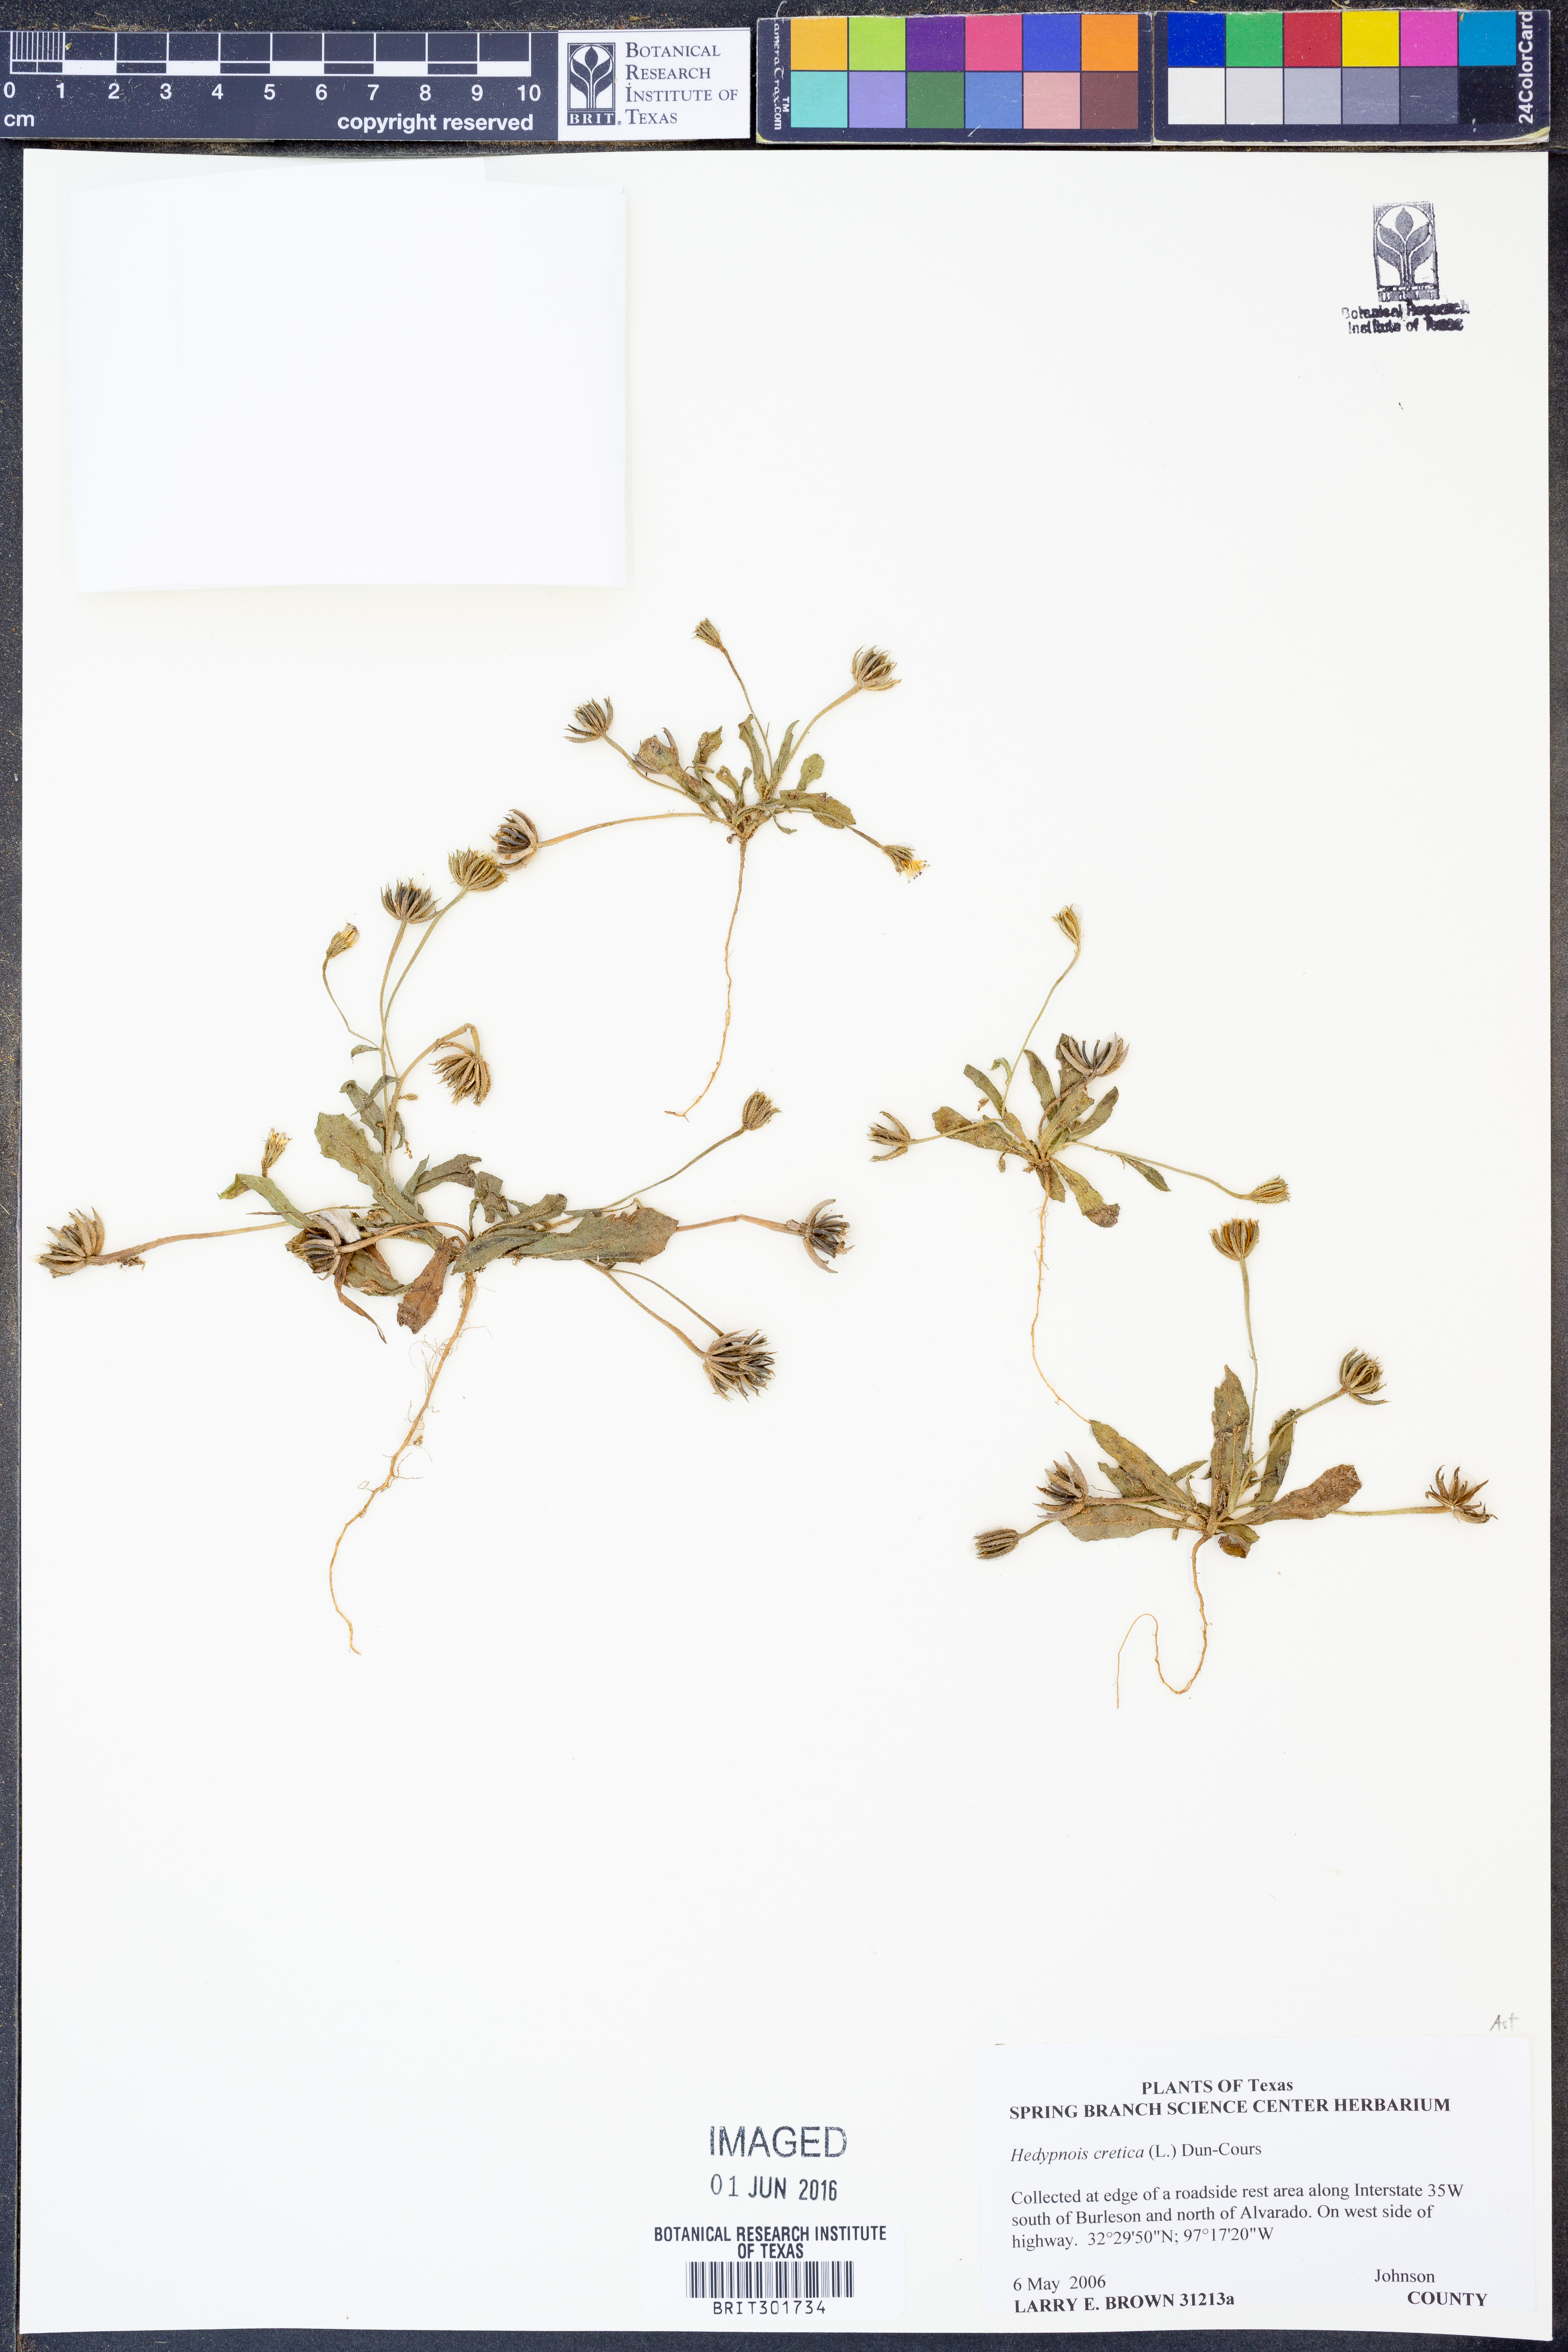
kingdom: Plantae
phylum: Tracheophyta
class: Magnoliopsida
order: Asterales
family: Asteraceae
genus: Hedypnois
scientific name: Hedypnois cretica
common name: Scaly hawkbit
